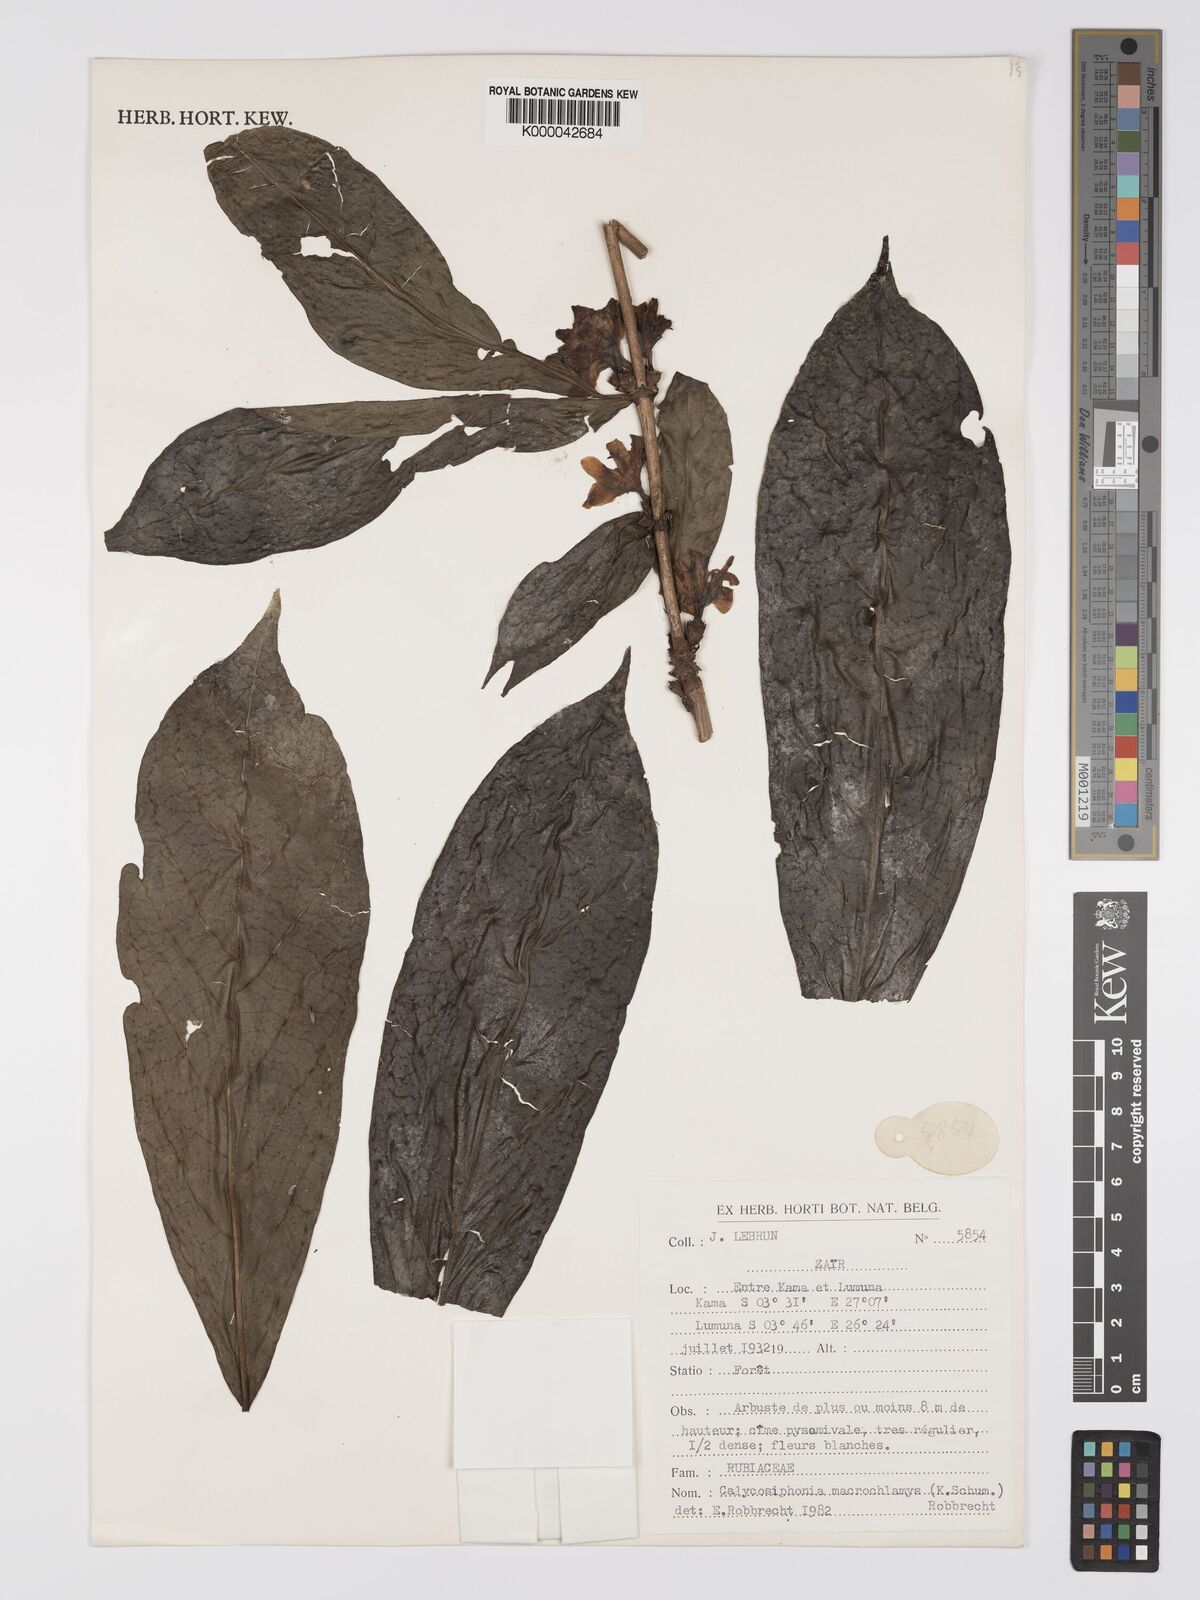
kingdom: Plantae
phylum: Tracheophyta
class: Magnoliopsida
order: Gentianales
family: Rubiaceae
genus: Calycosiphonia
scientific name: Calycosiphonia
